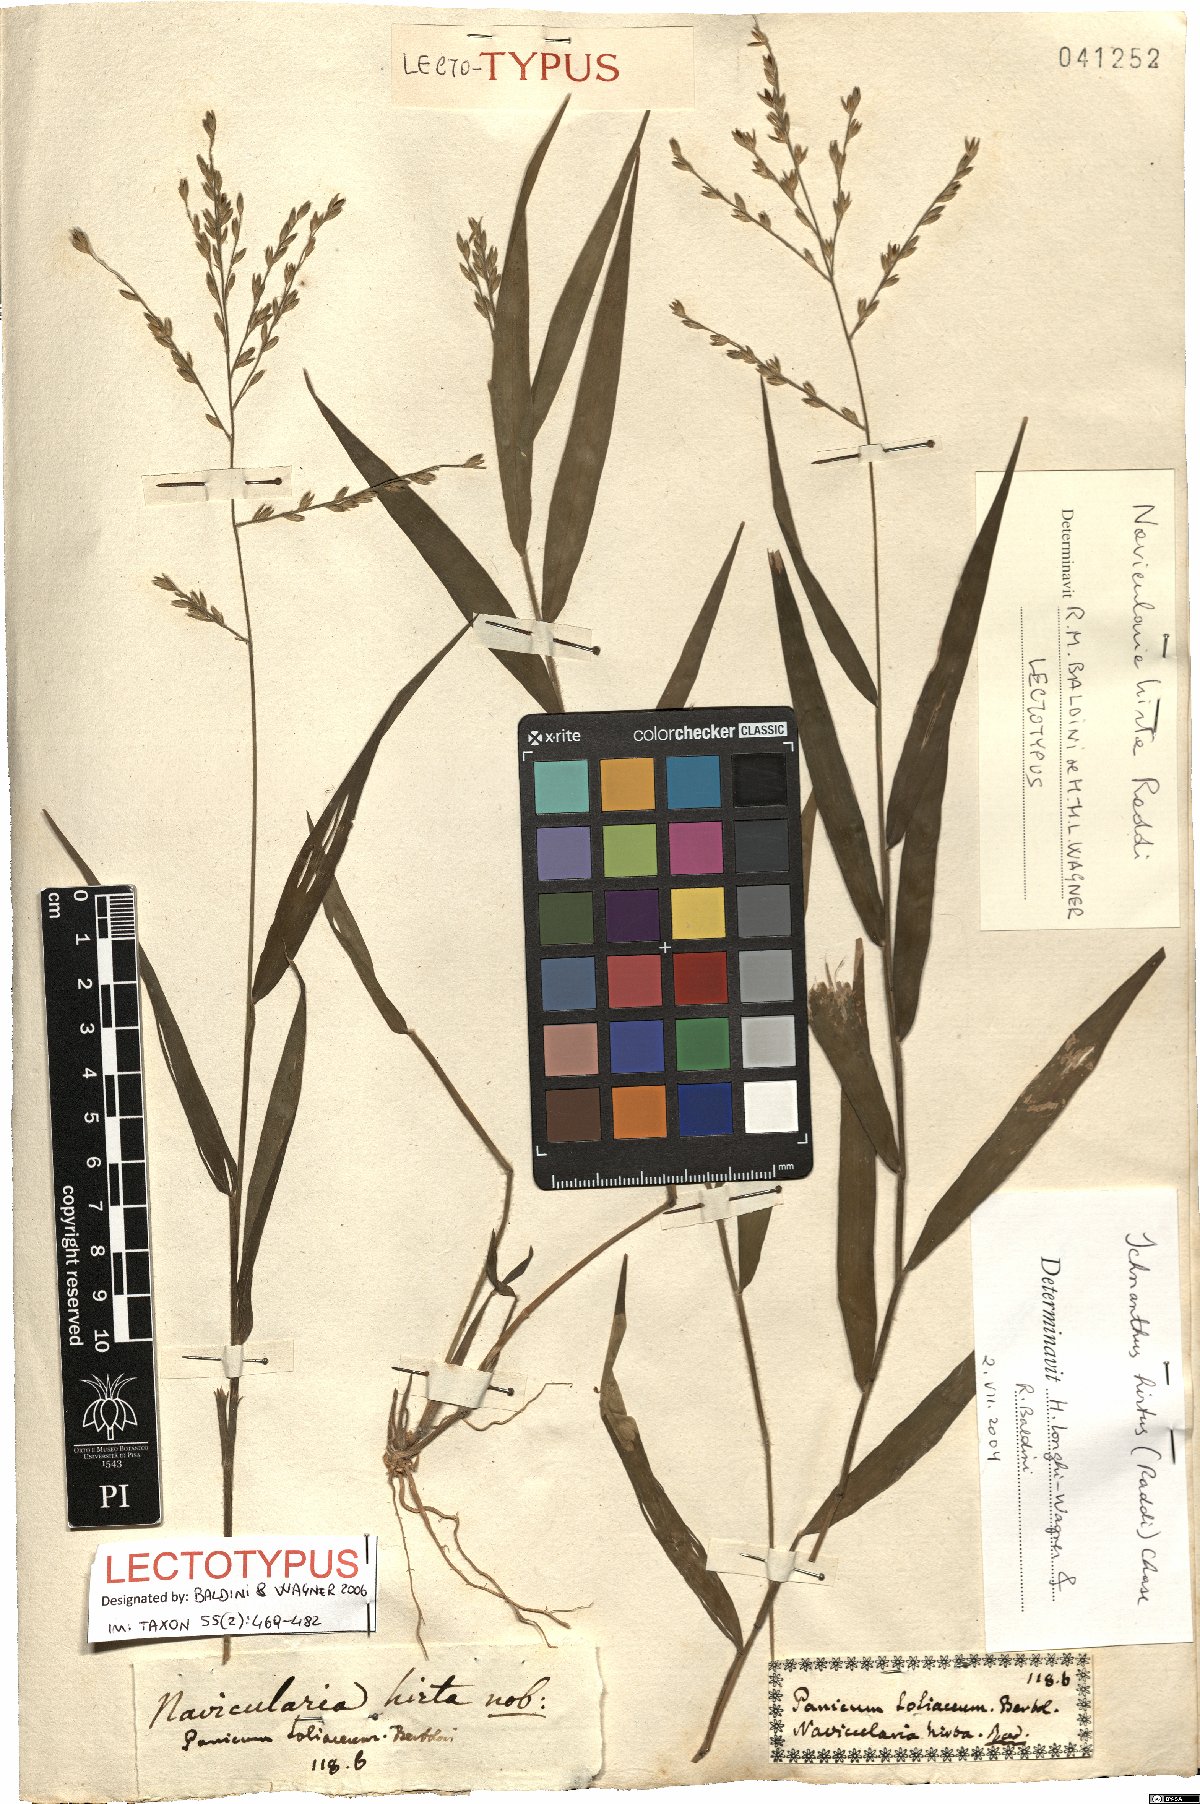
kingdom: Plantae
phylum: Tracheophyta
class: Liliopsida
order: Poales
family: Poaceae
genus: Ichnanthus
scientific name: Ichnanthus hirtus
